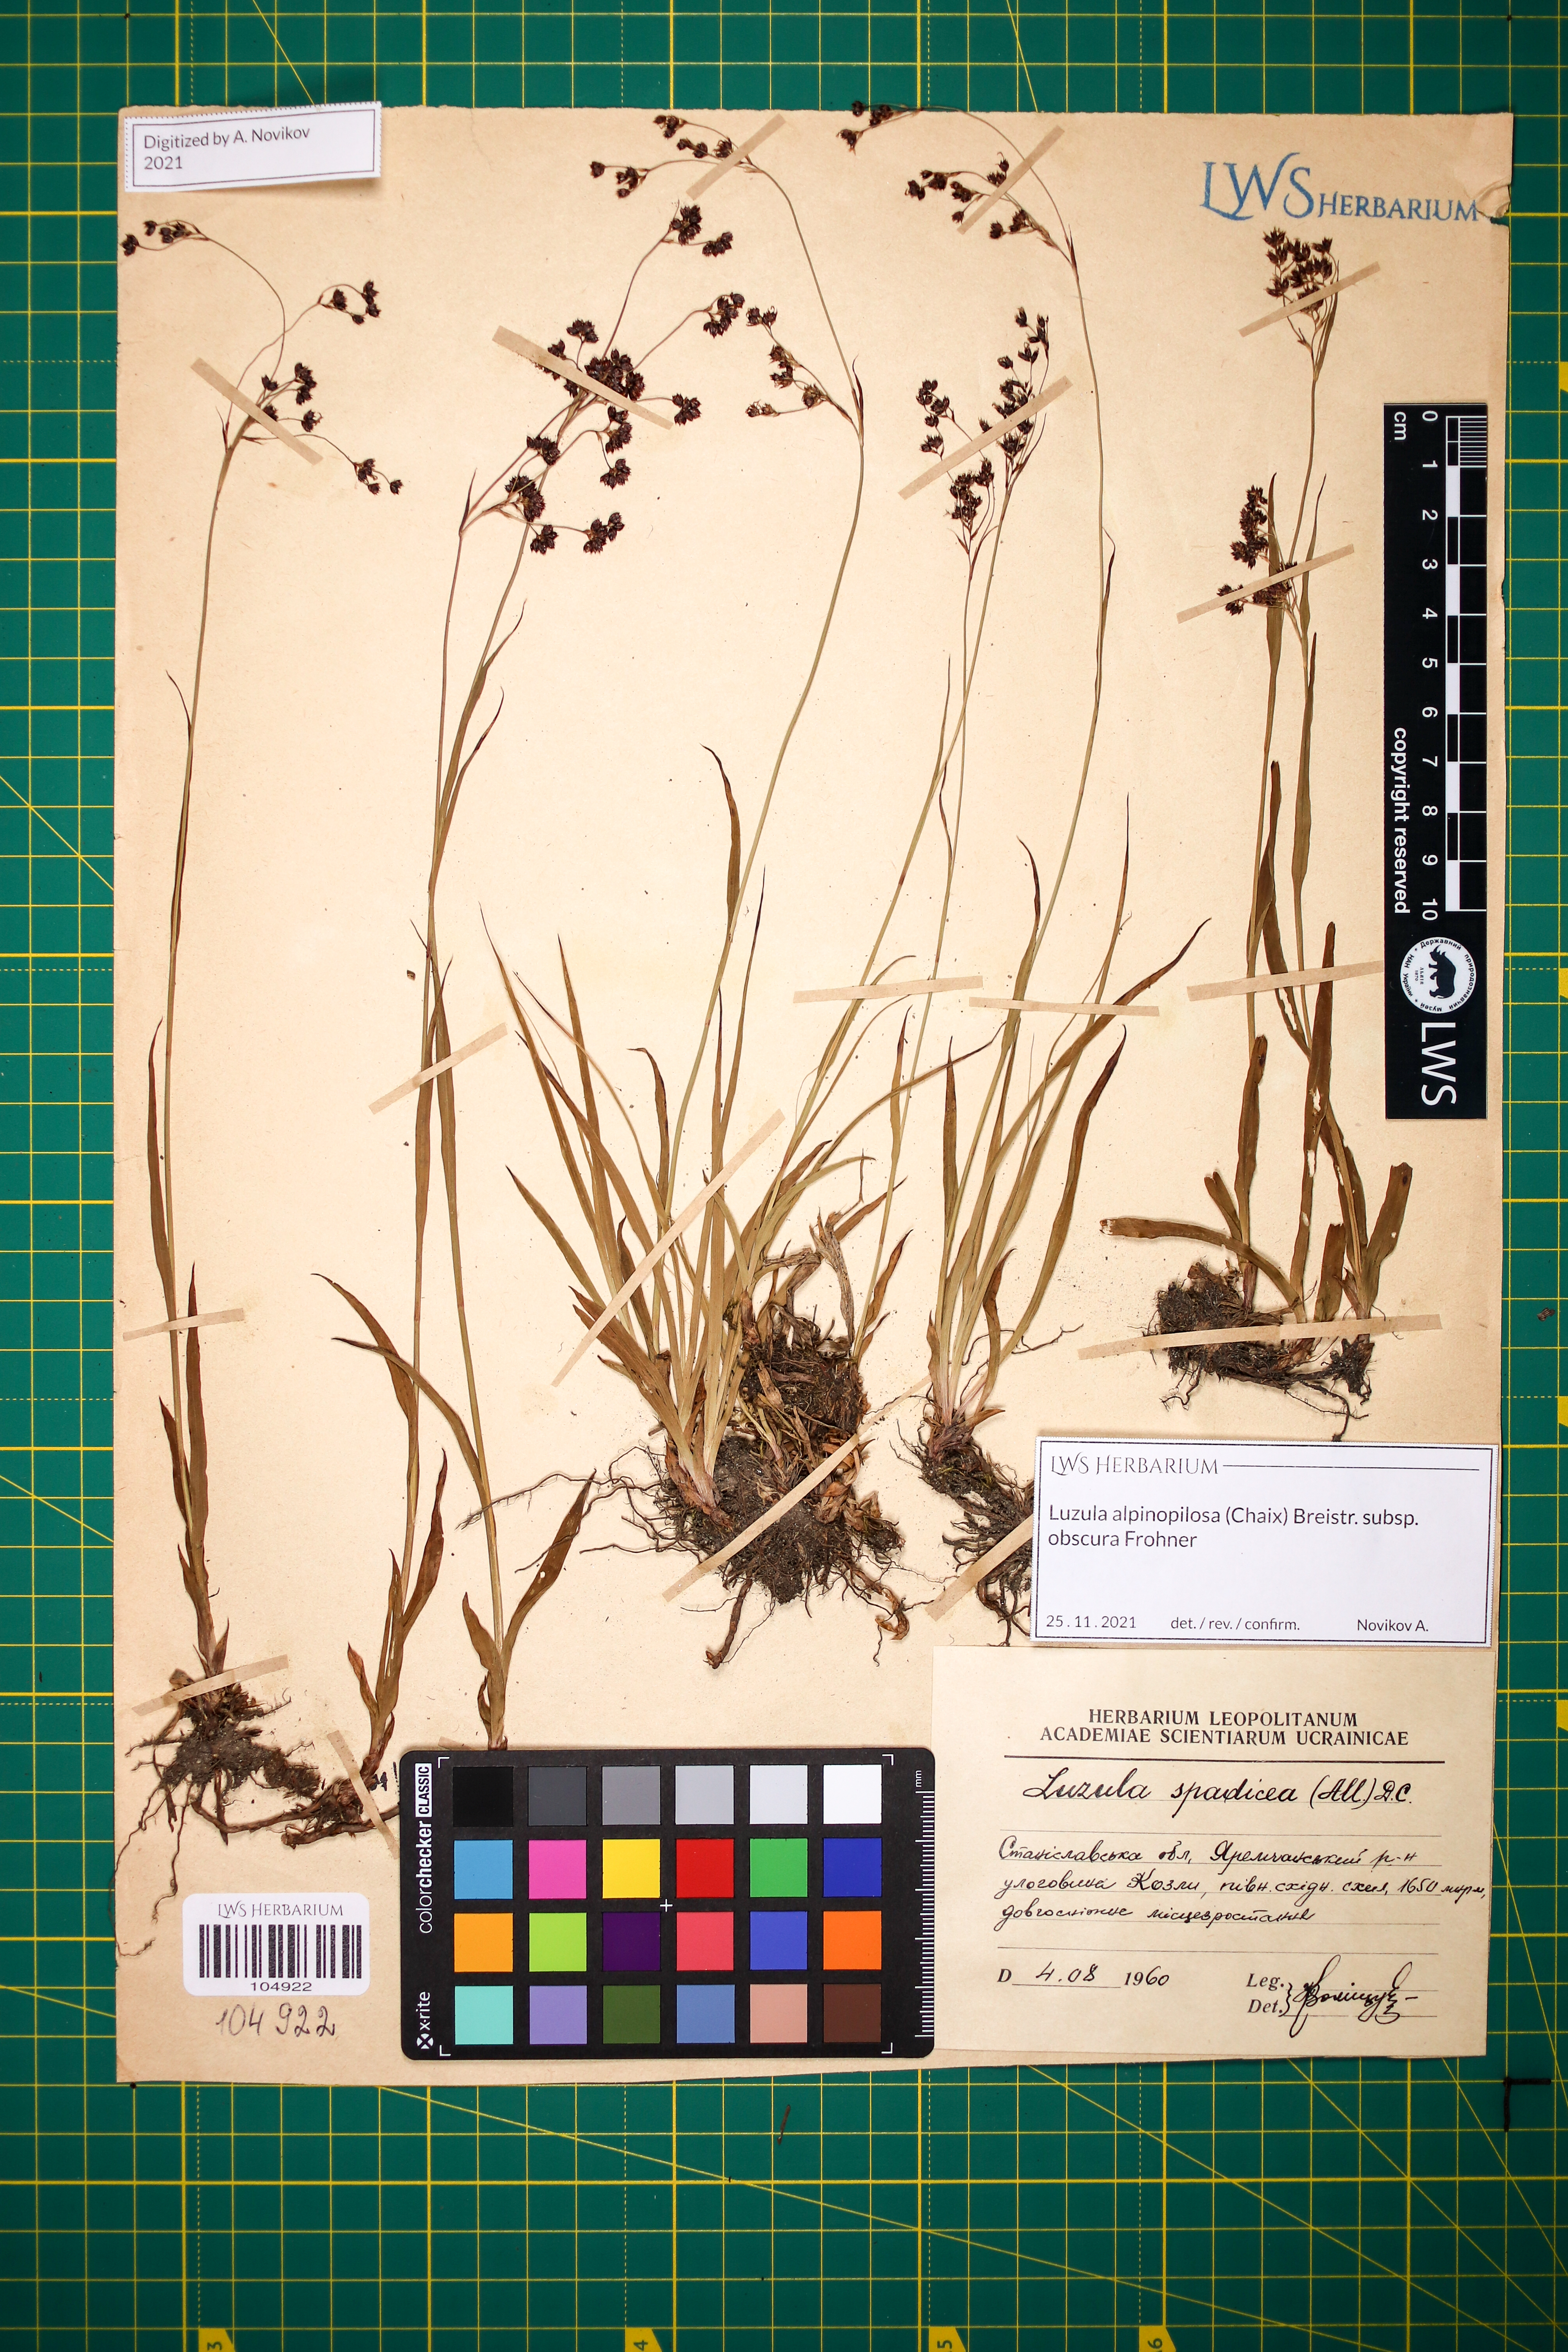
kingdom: Plantae
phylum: Tracheophyta
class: Liliopsida
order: Poales
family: Juncaceae
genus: Luzula
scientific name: Luzula alpinopilosa
